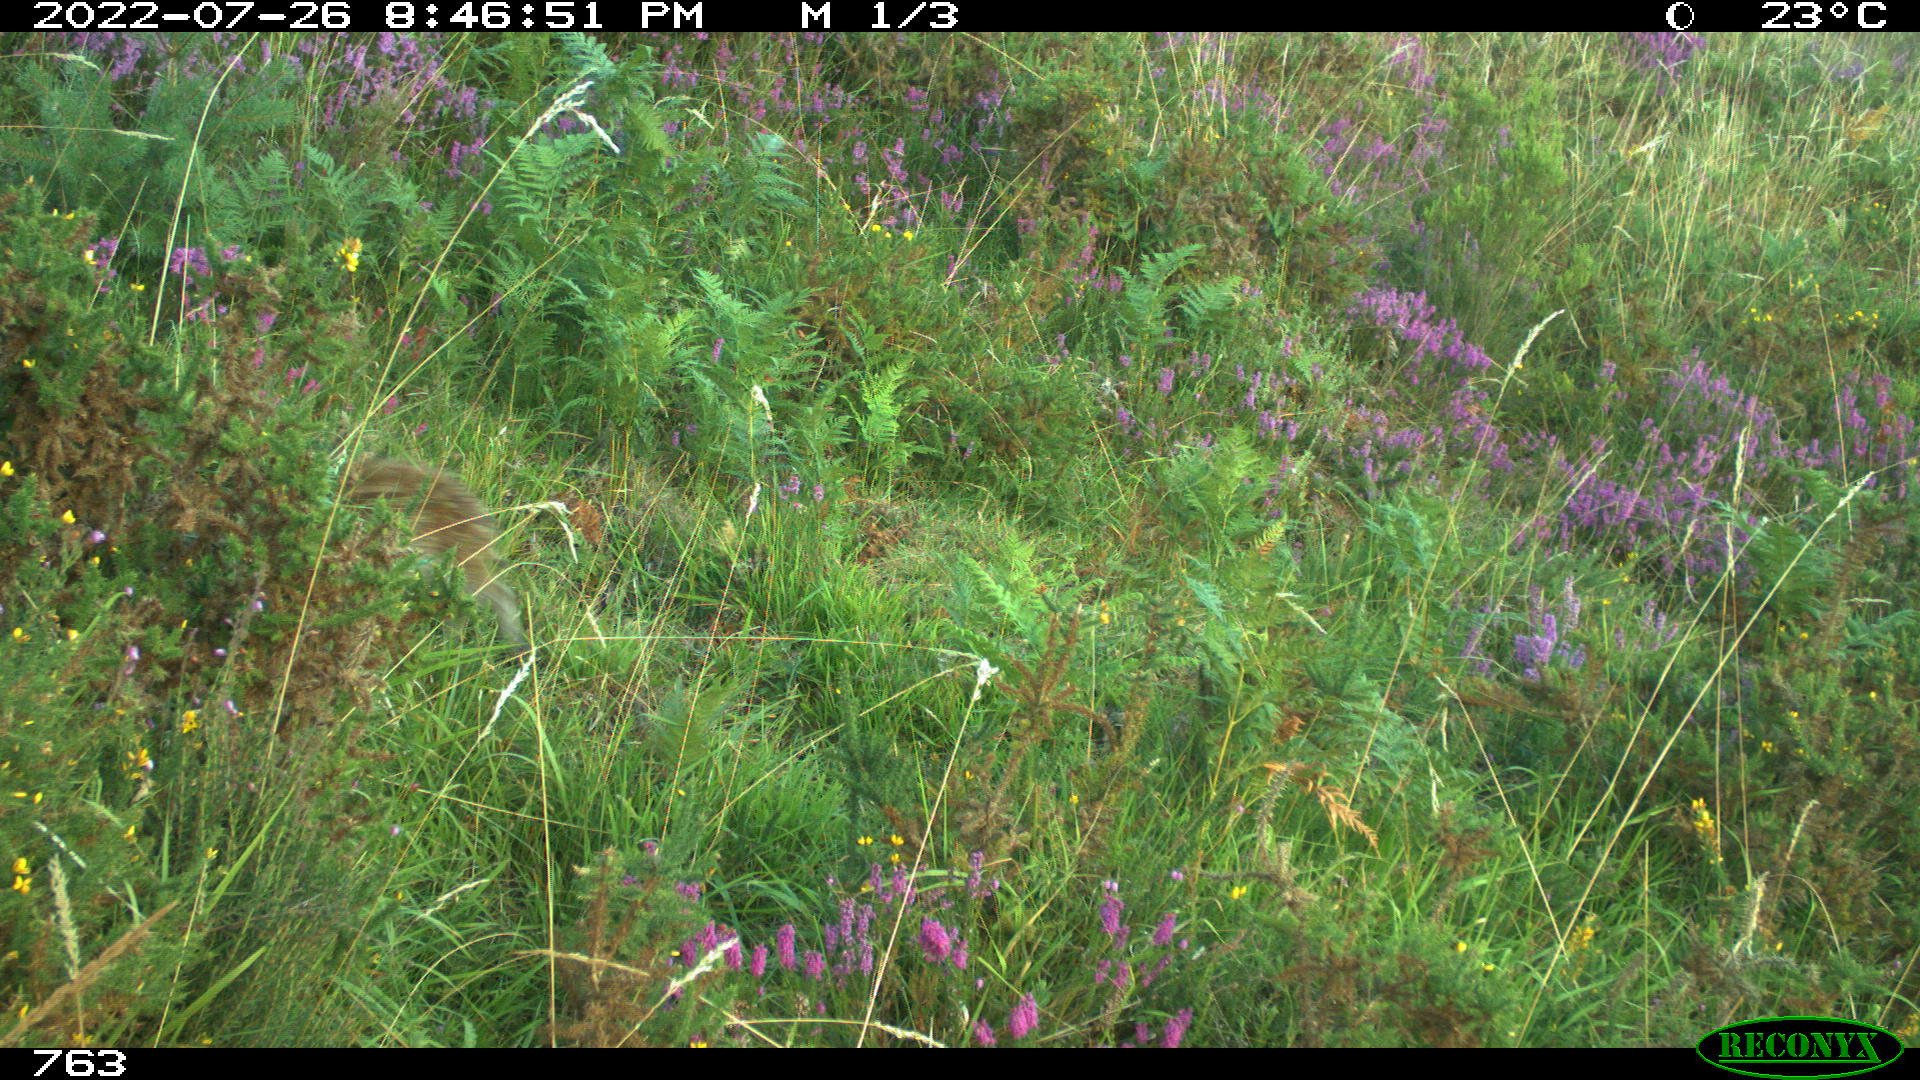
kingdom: Animalia
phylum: Chordata
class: Mammalia
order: Artiodactyla
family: Suidae
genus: Sus
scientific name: Sus scrofa
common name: Wild boar
